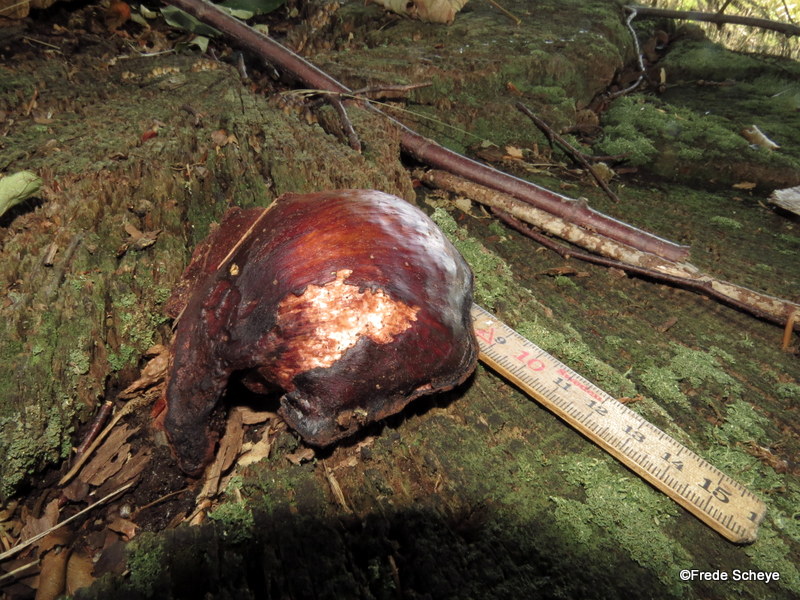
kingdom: Fungi
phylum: Basidiomycota
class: Agaricomycetes
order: Agaricales
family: Fistulinaceae
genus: Fistulina
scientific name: Fistulina hepatica
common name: oksetunge
